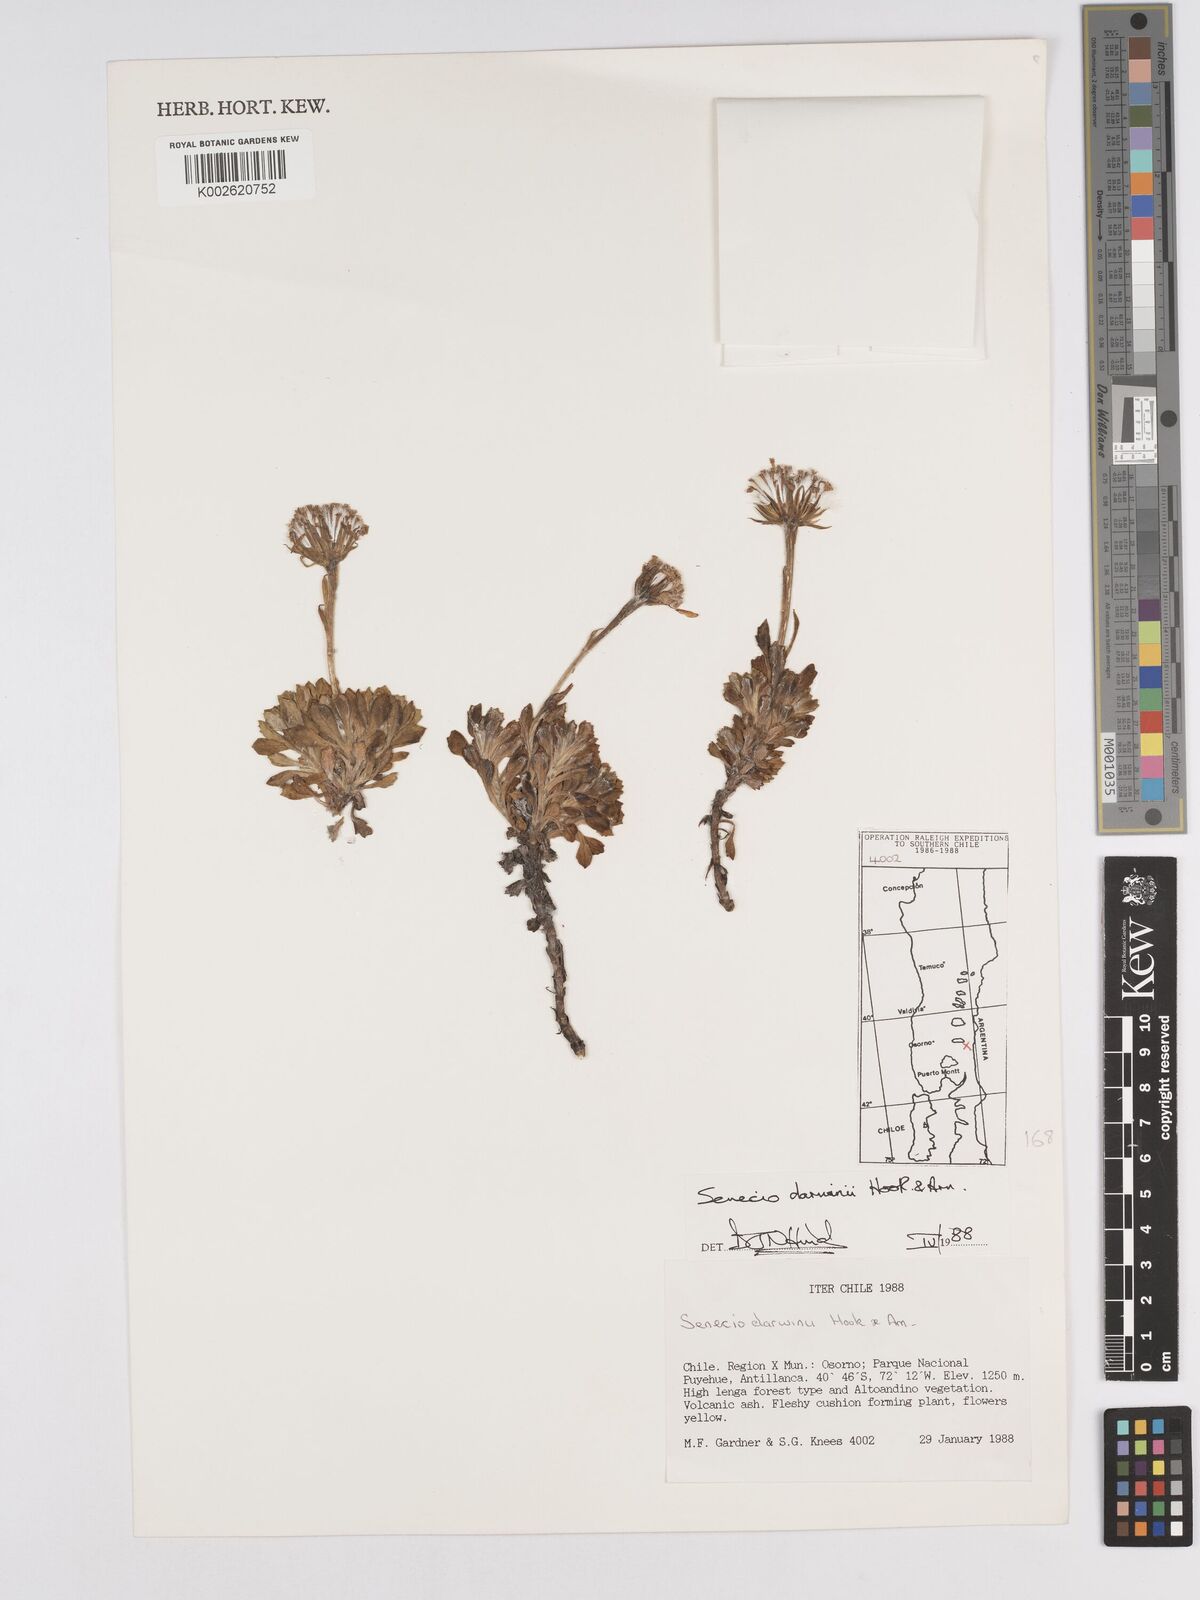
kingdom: Plantae
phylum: Tracheophyta
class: Magnoliopsida
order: Asterales
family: Asteraceae
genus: Senecio
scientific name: Senecio darwinii
